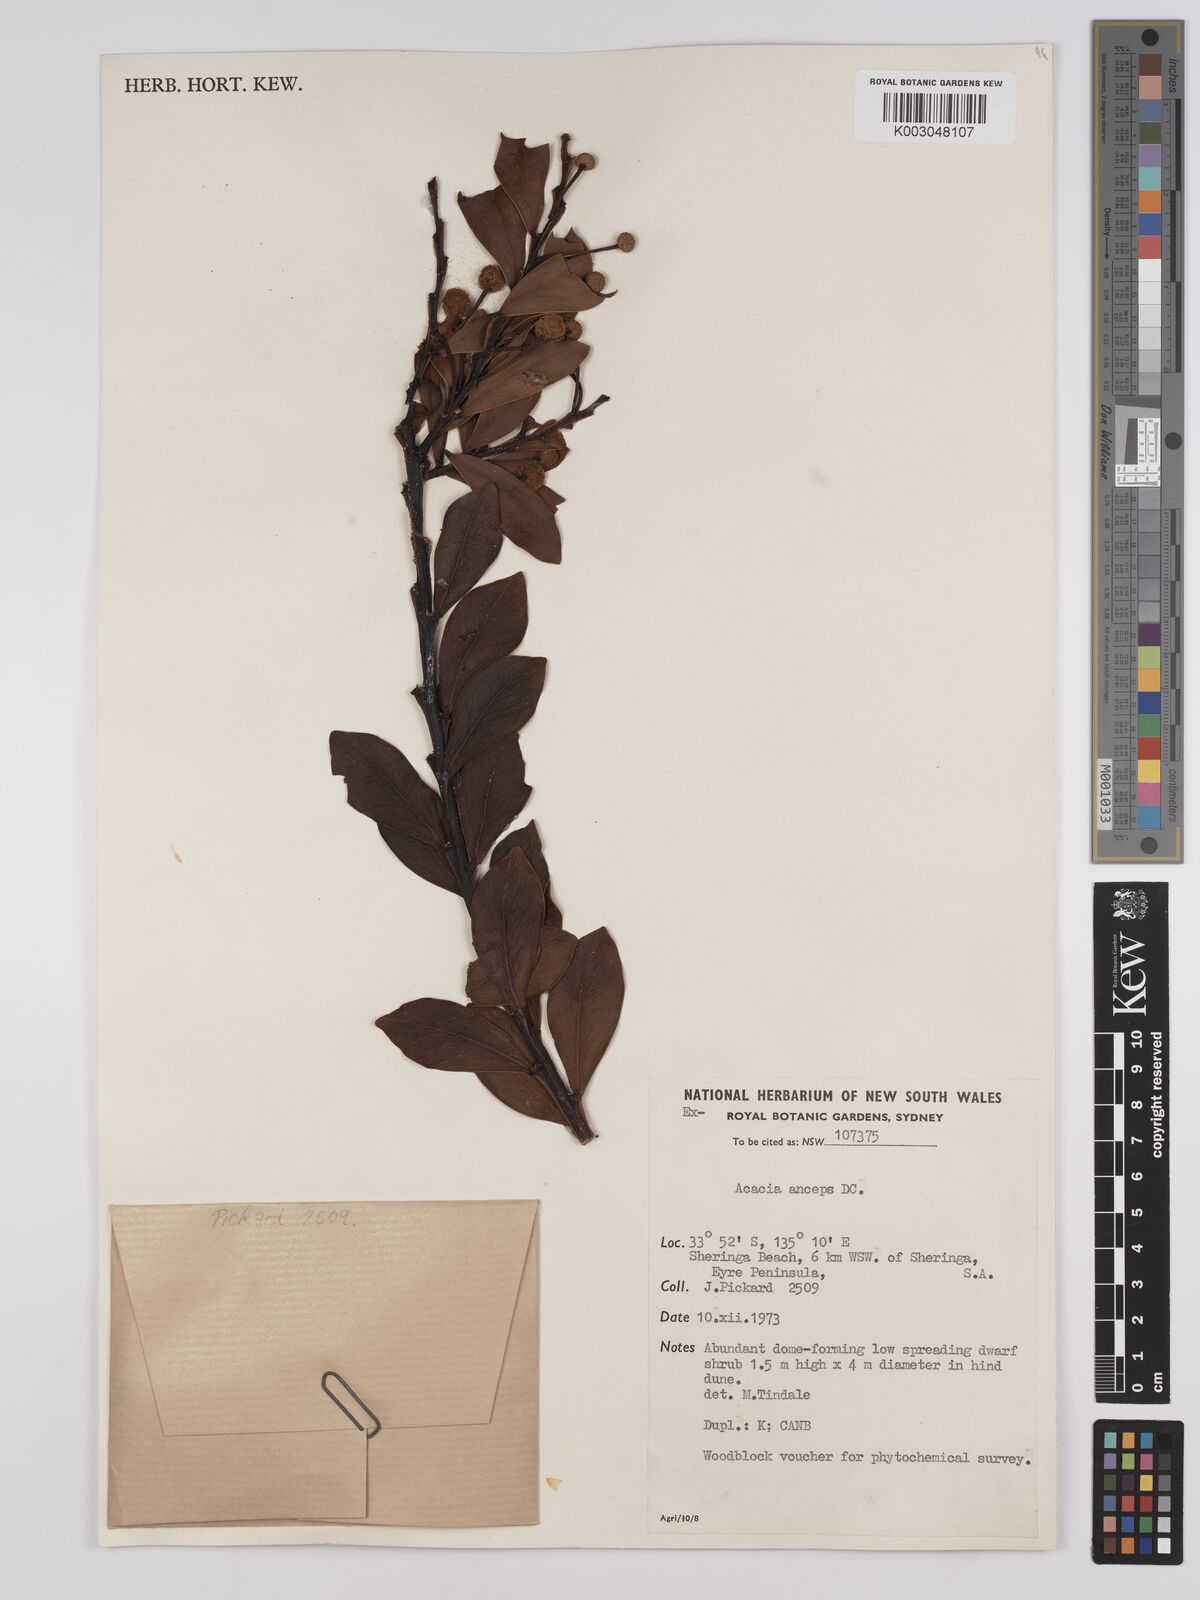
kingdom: Plantae
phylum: Tracheophyta
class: Magnoliopsida
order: Fabales
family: Fabaceae
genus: Acacia
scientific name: Acacia anceps
